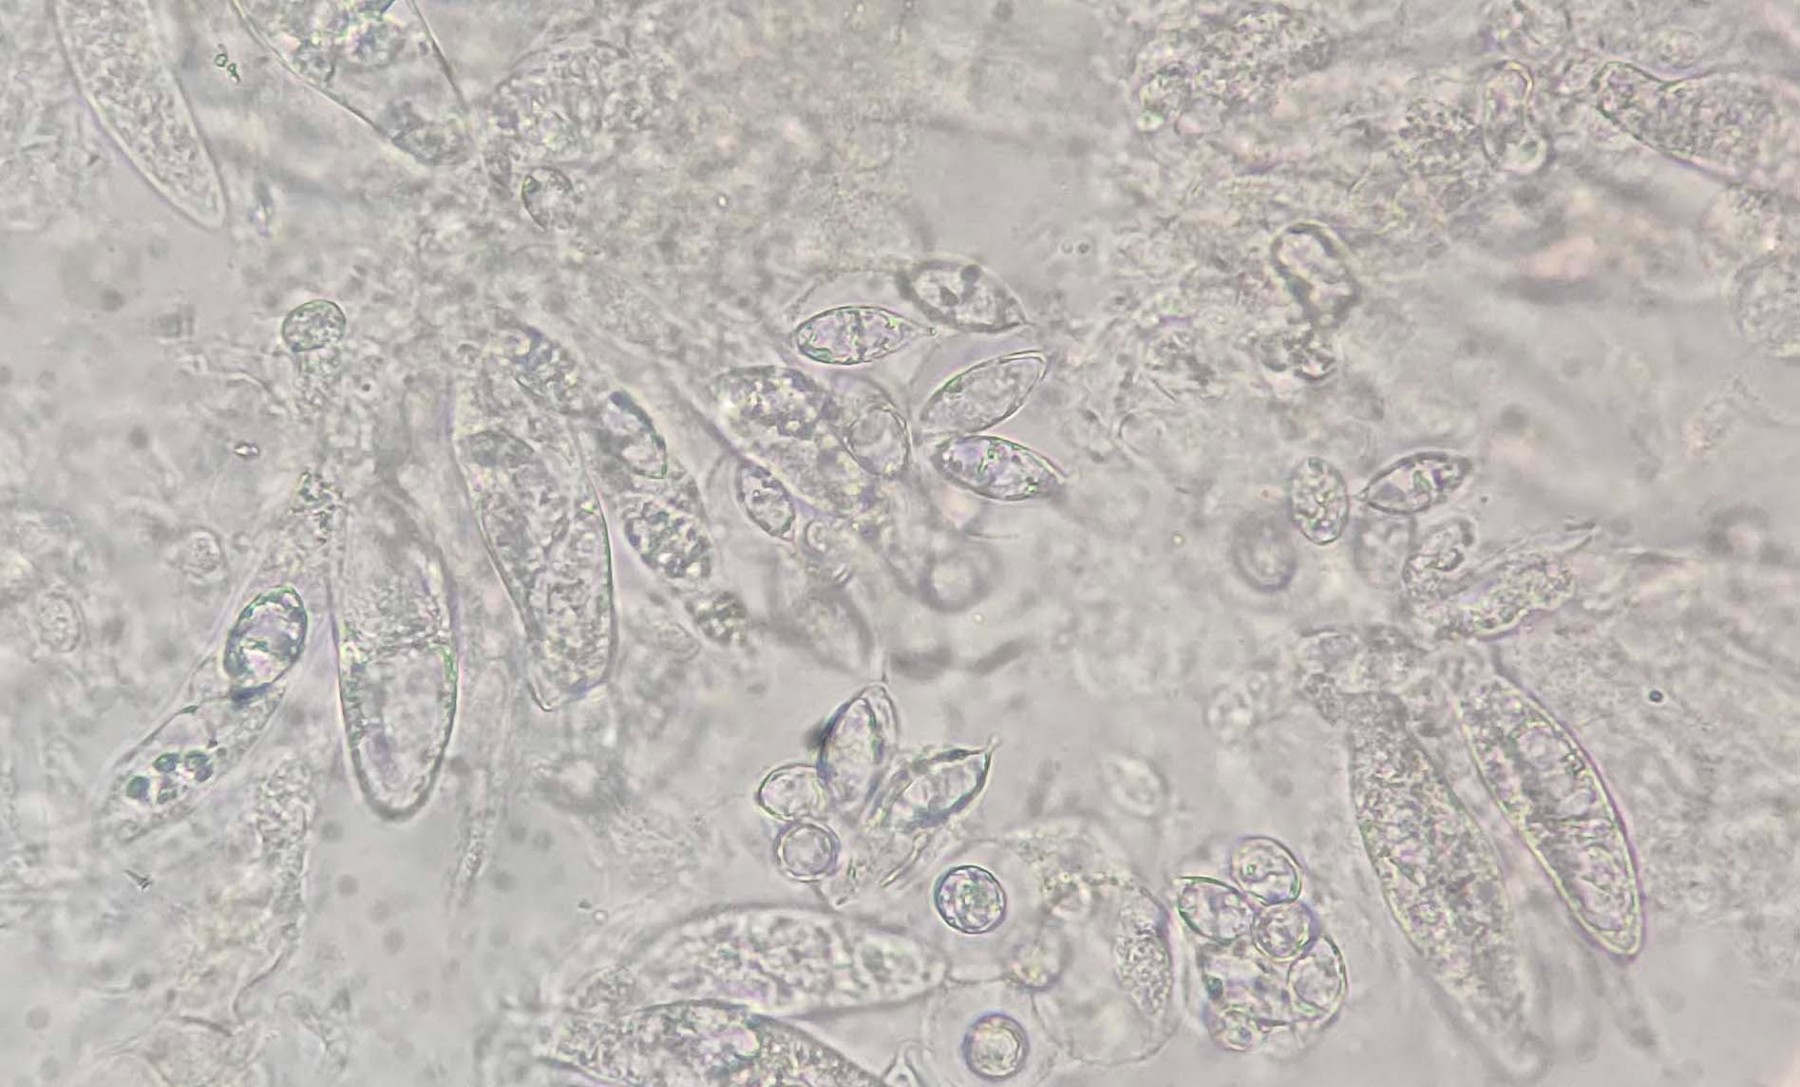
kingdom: Fungi
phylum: Ascomycota
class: Sordariomycetes
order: Hypocreales
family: Bionectriaceae
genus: Paranectria
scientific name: Paranectria oropensis
